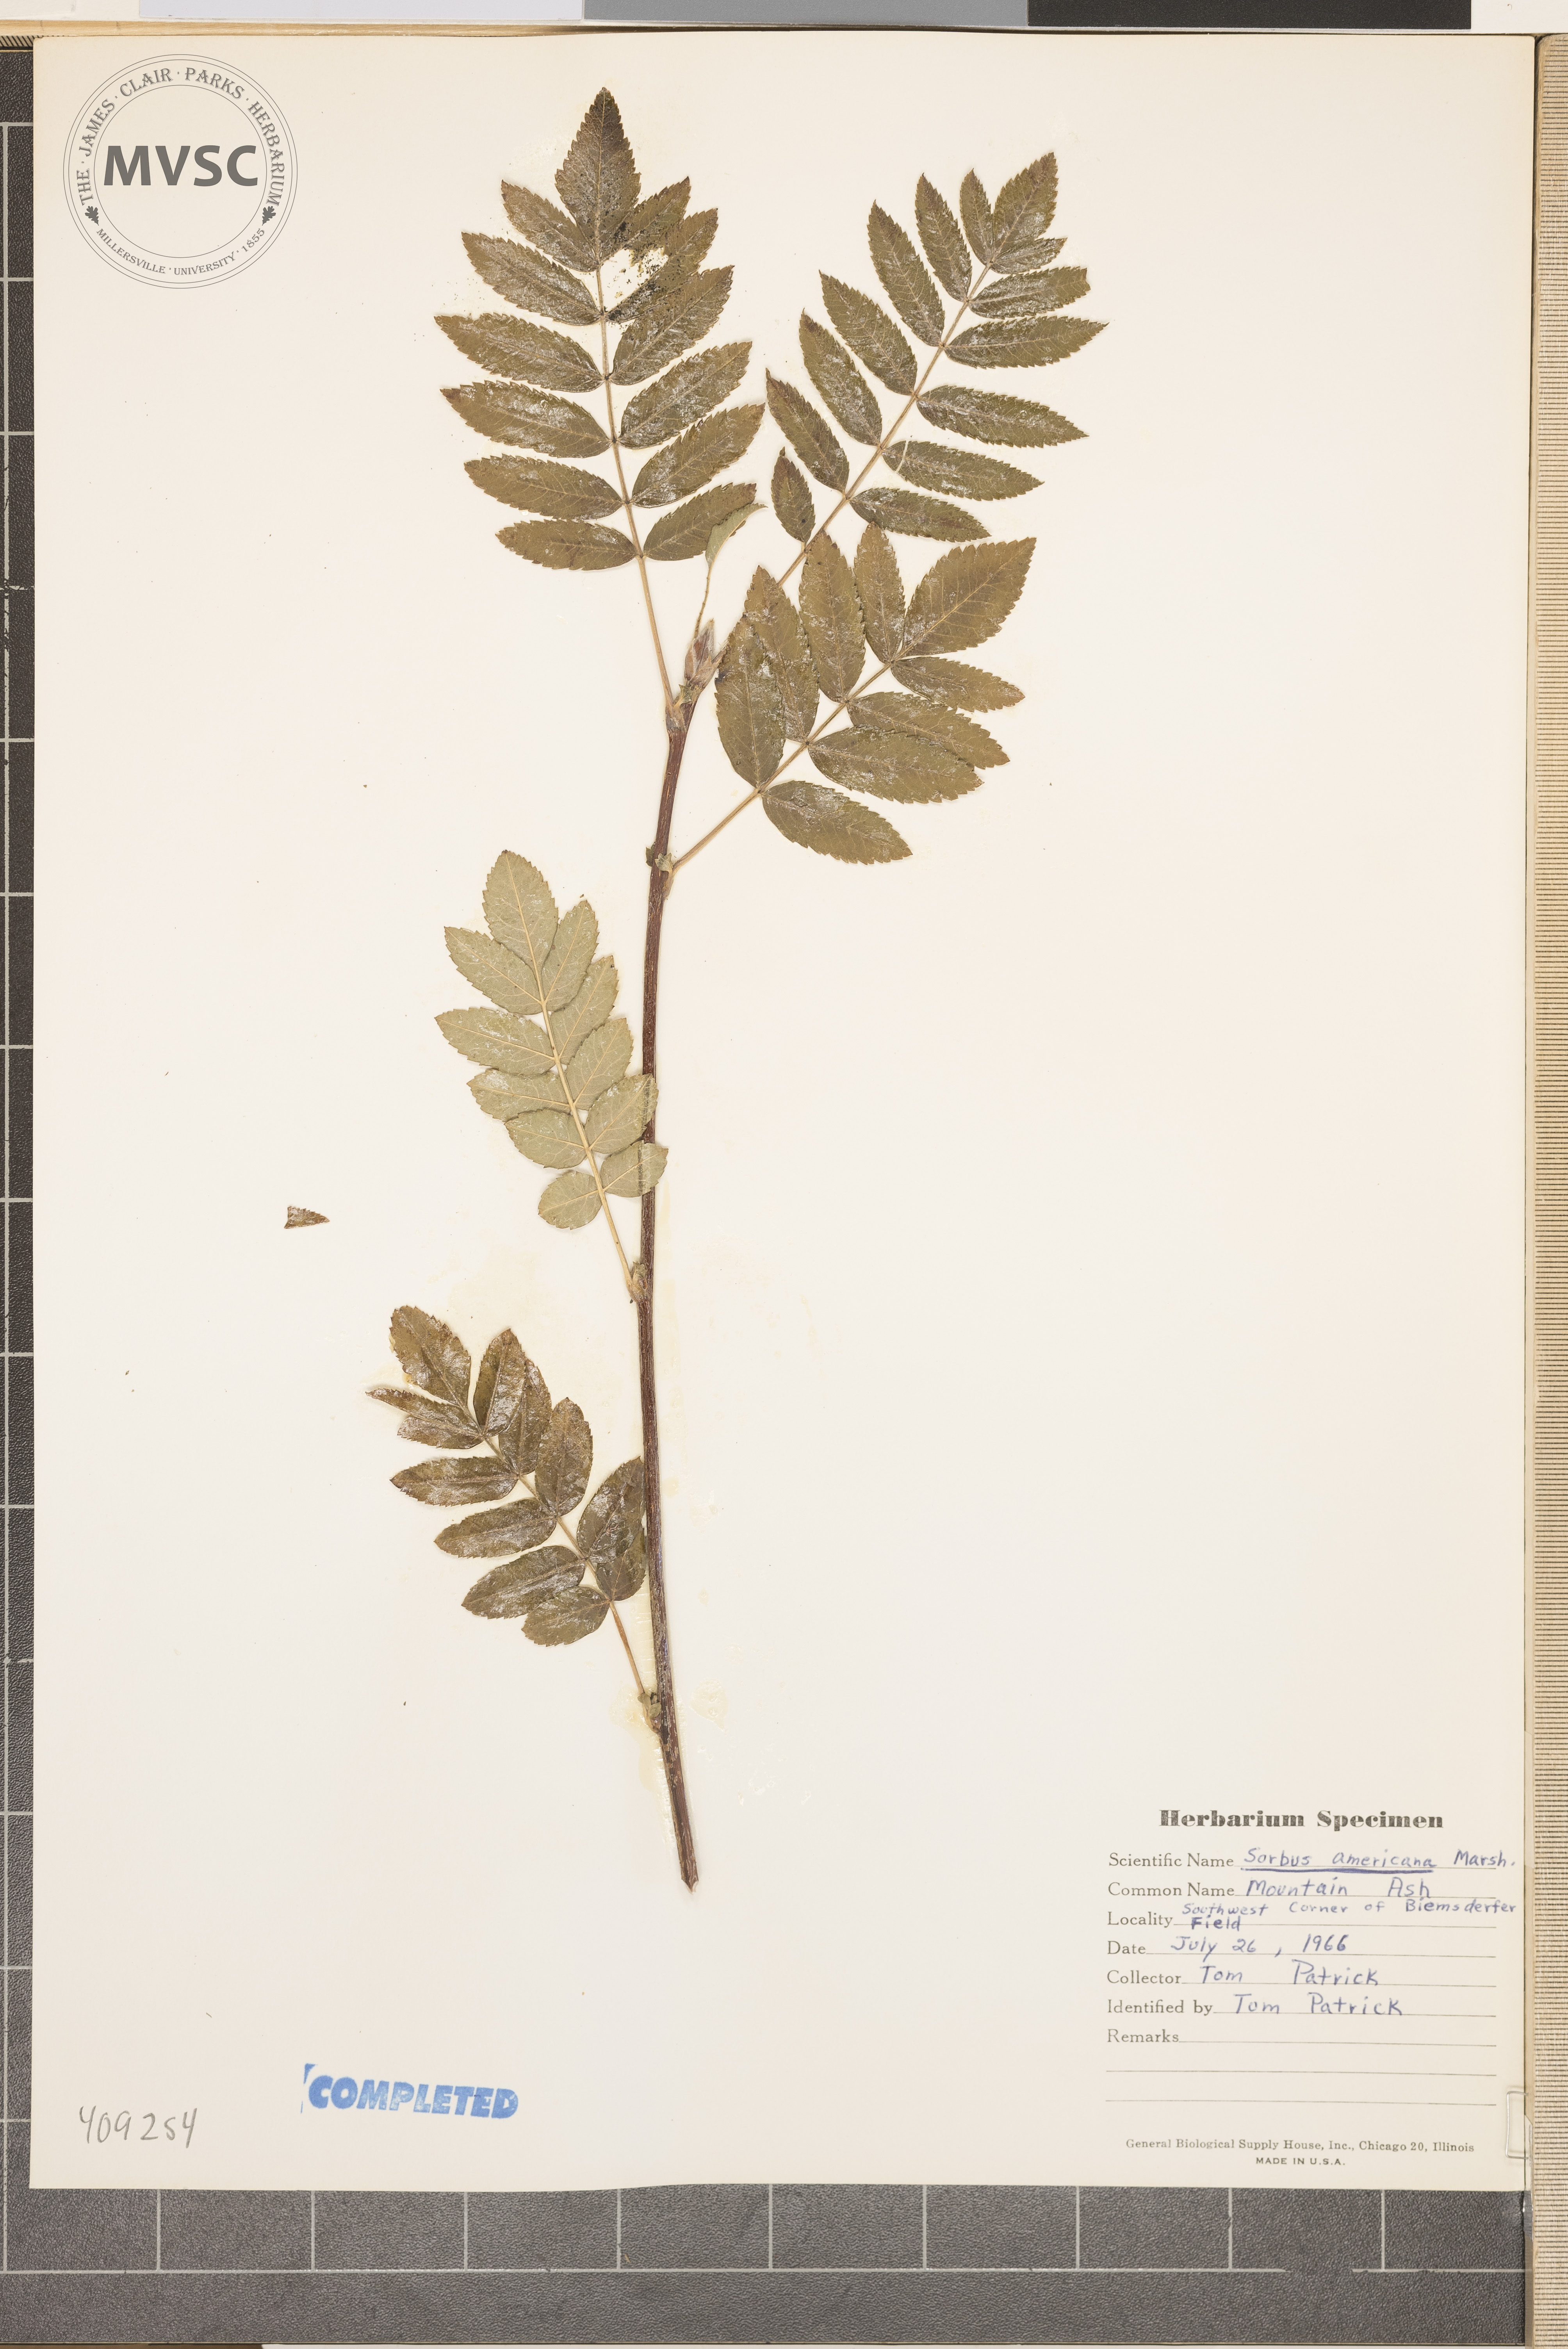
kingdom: Plantae
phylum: Tracheophyta
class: Magnoliopsida
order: Rosales
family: Rosaceae
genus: Sorbus
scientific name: Sorbus americana
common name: American mountain-ash
